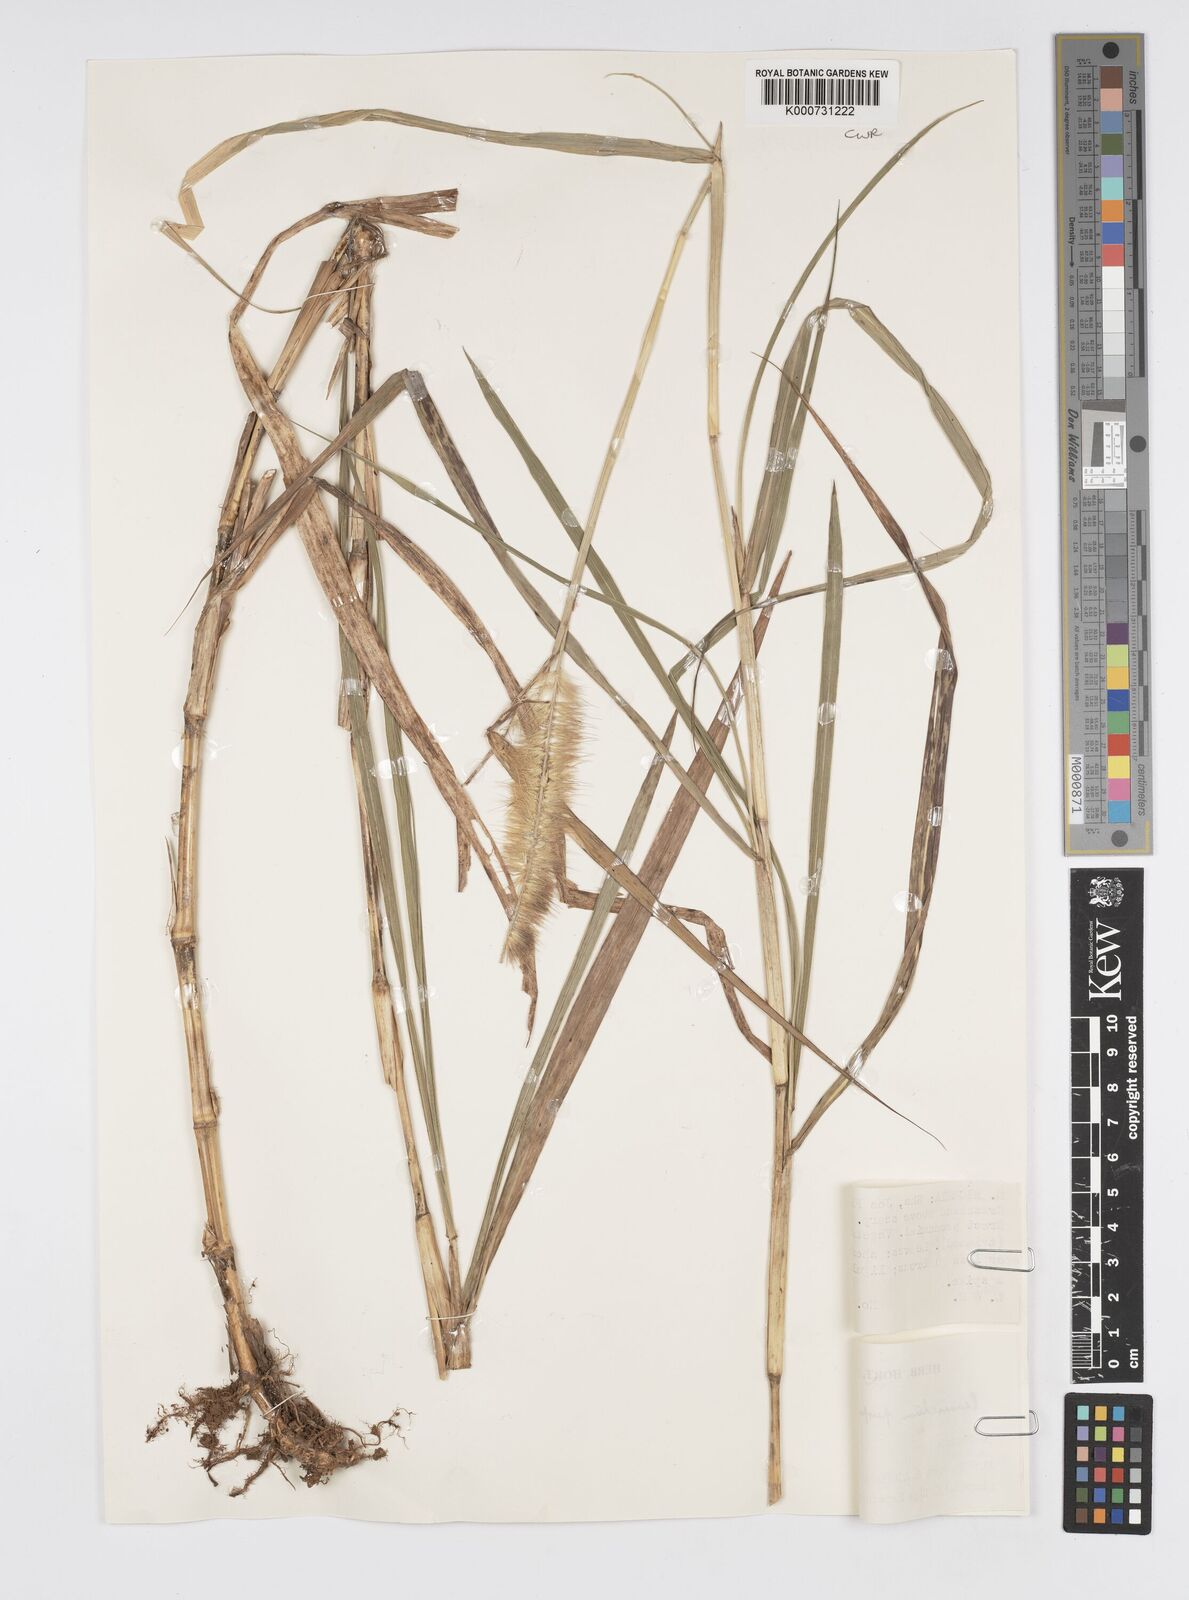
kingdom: Plantae
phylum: Tracheophyta
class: Liliopsida
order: Poales
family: Poaceae
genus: Cenchrus
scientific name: Cenchrus purpureus
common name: Elephant grass
